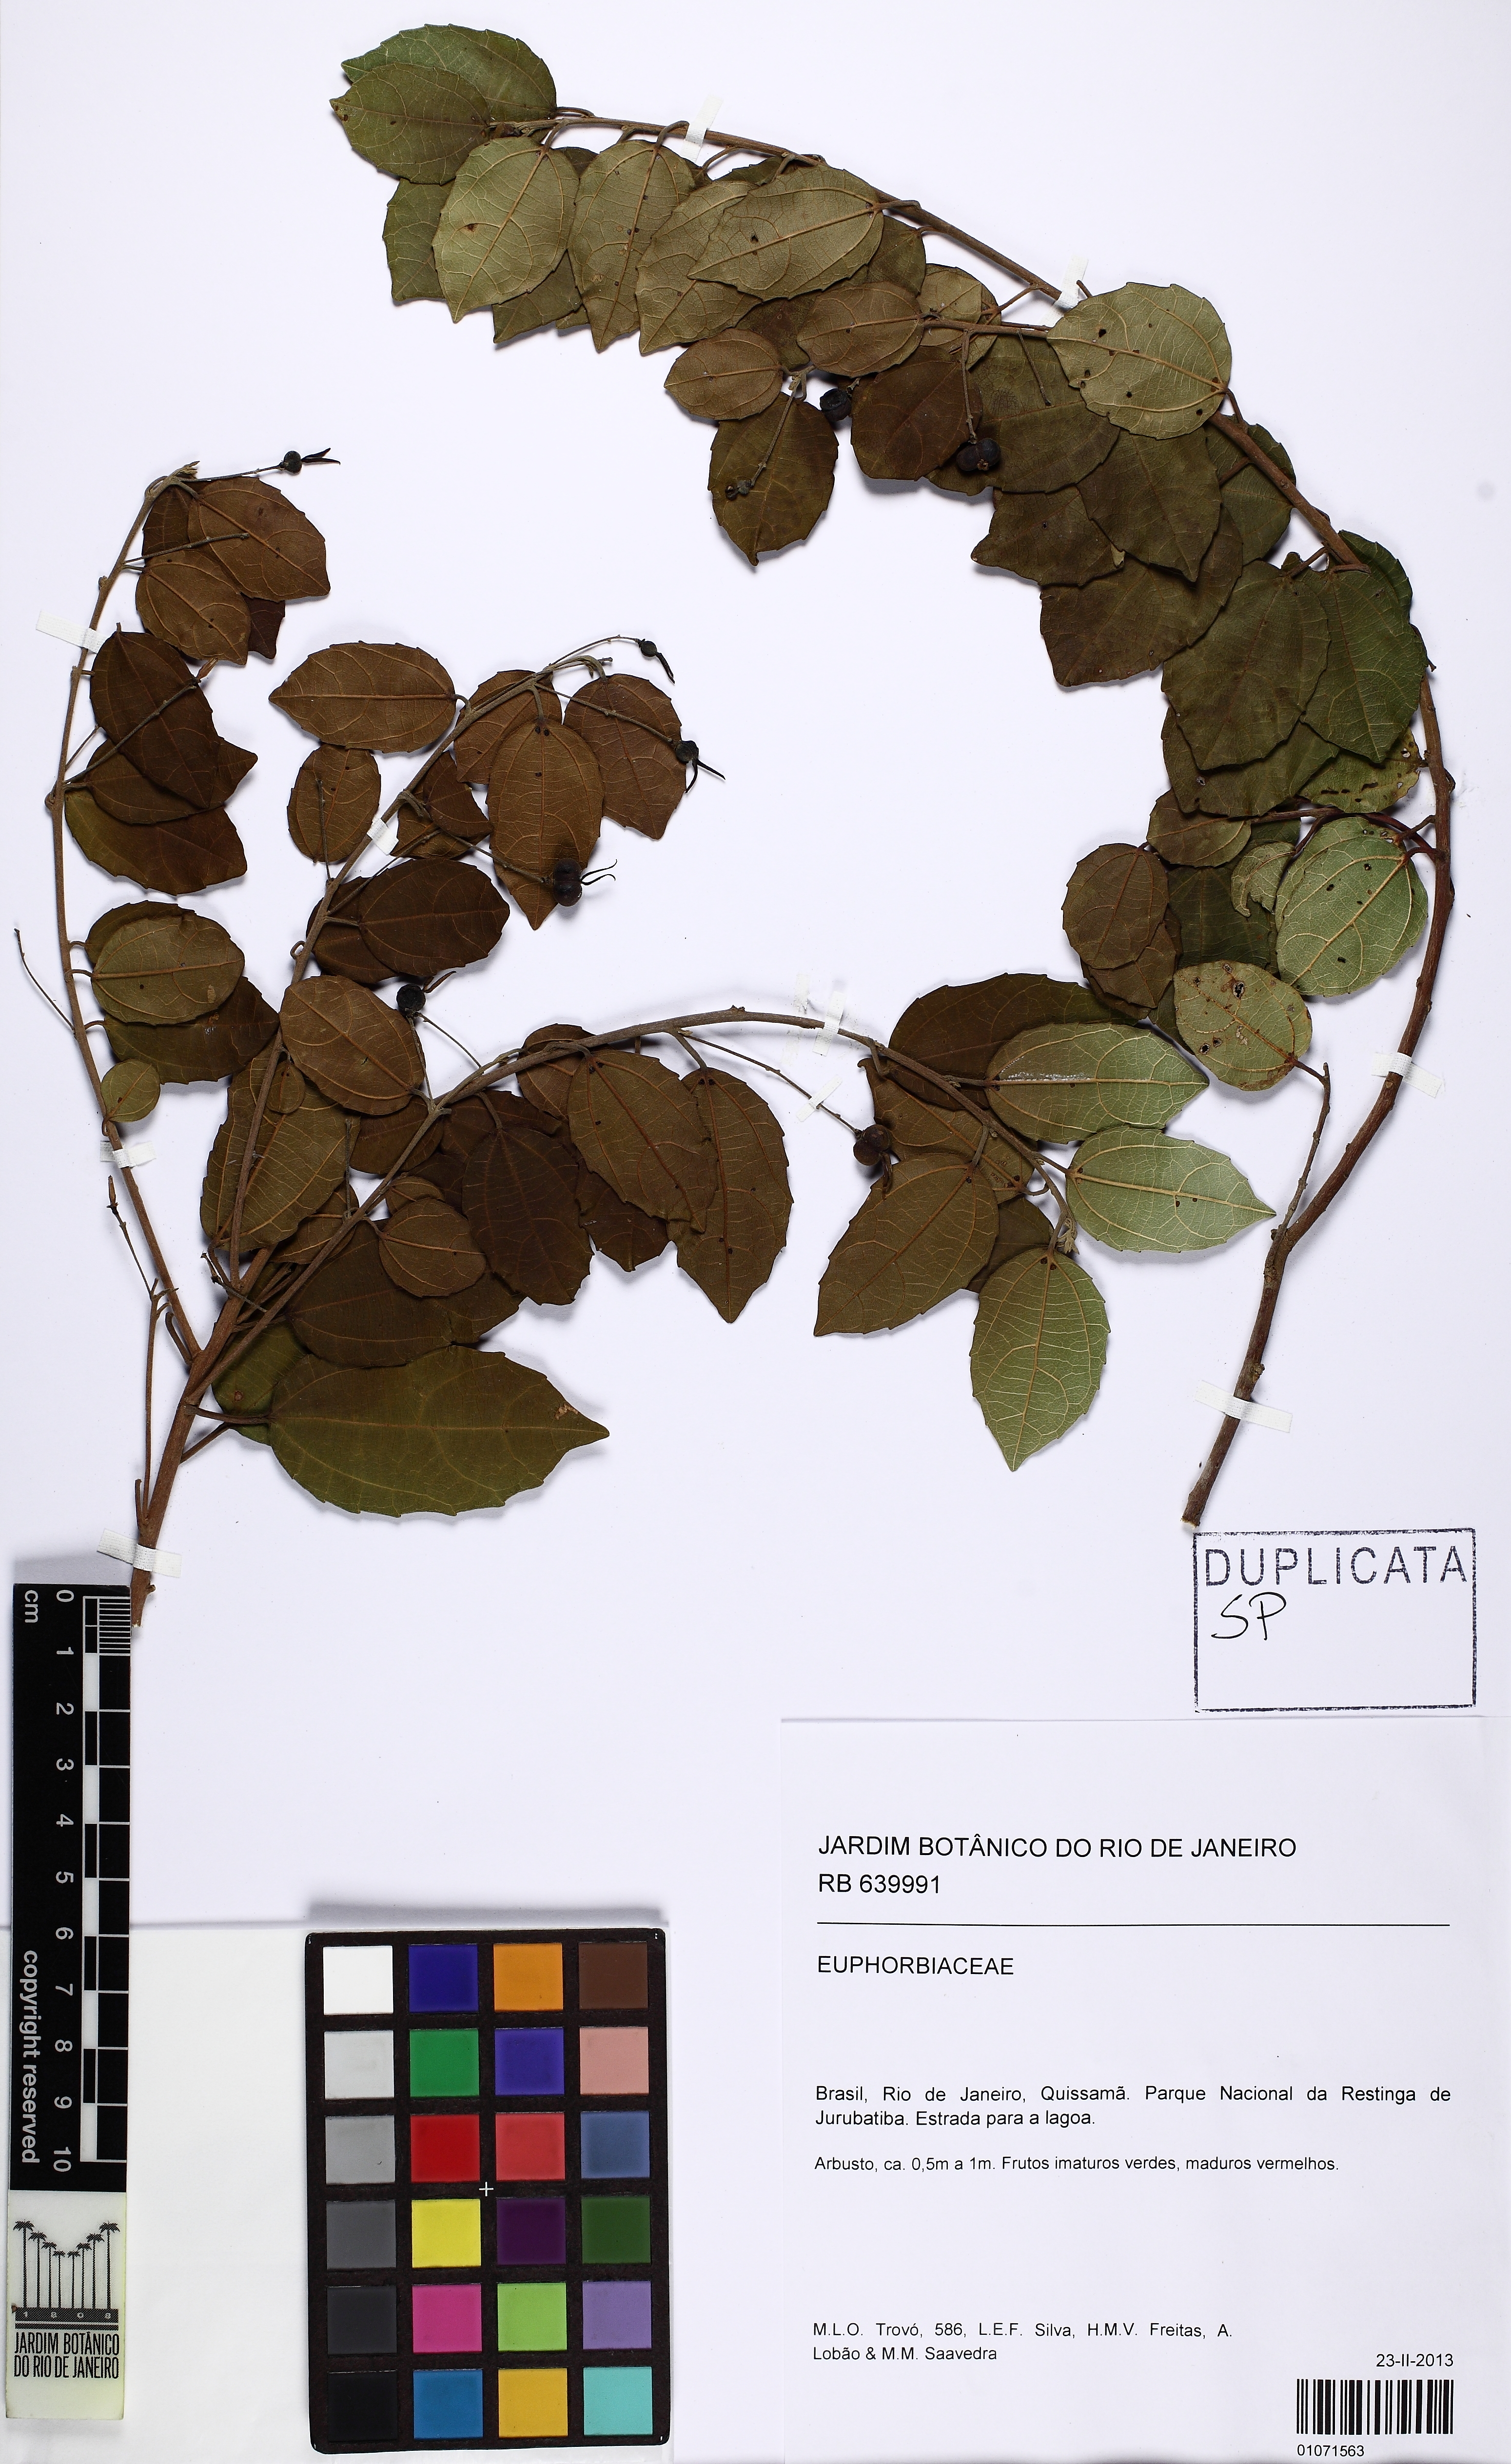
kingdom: Plantae
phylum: Tracheophyta
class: Magnoliopsida
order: Malpighiales
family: Euphorbiaceae
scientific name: Euphorbiaceae
